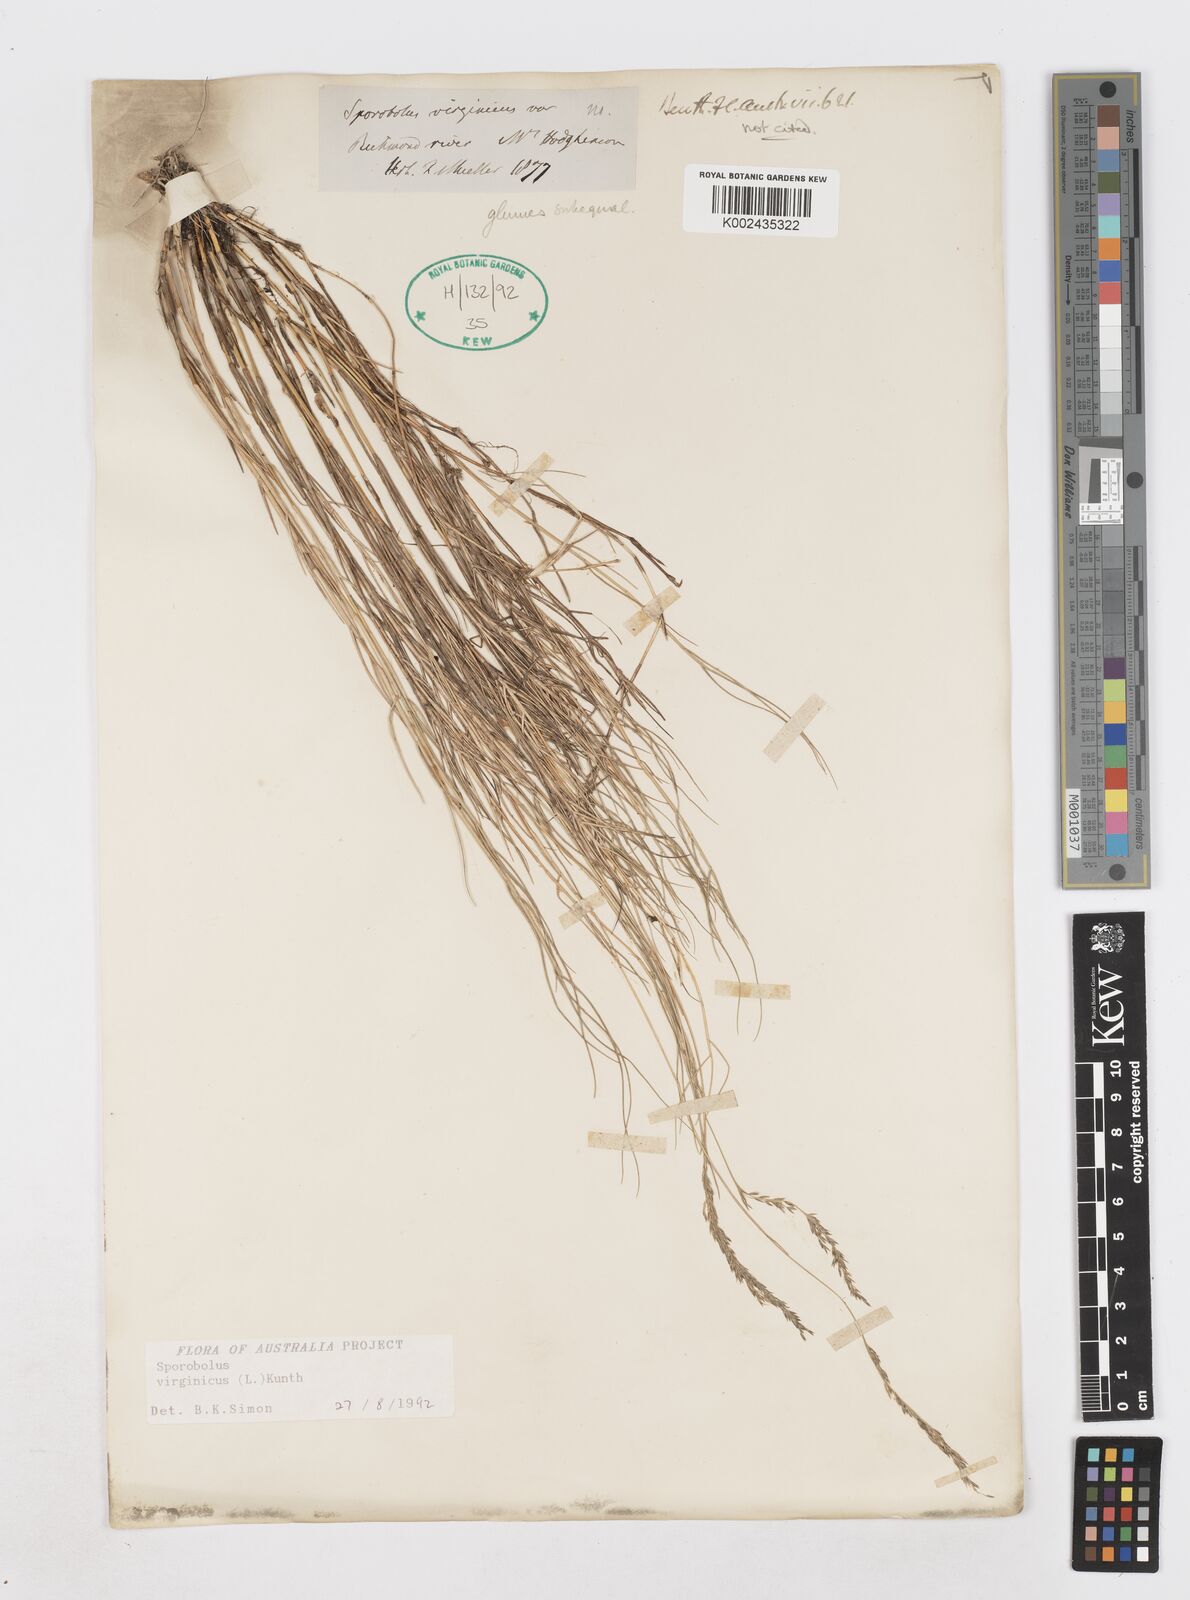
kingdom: Plantae
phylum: Tracheophyta
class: Liliopsida
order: Poales
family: Poaceae
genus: Sporobolus
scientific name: Sporobolus virginicus
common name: Beach dropseed
